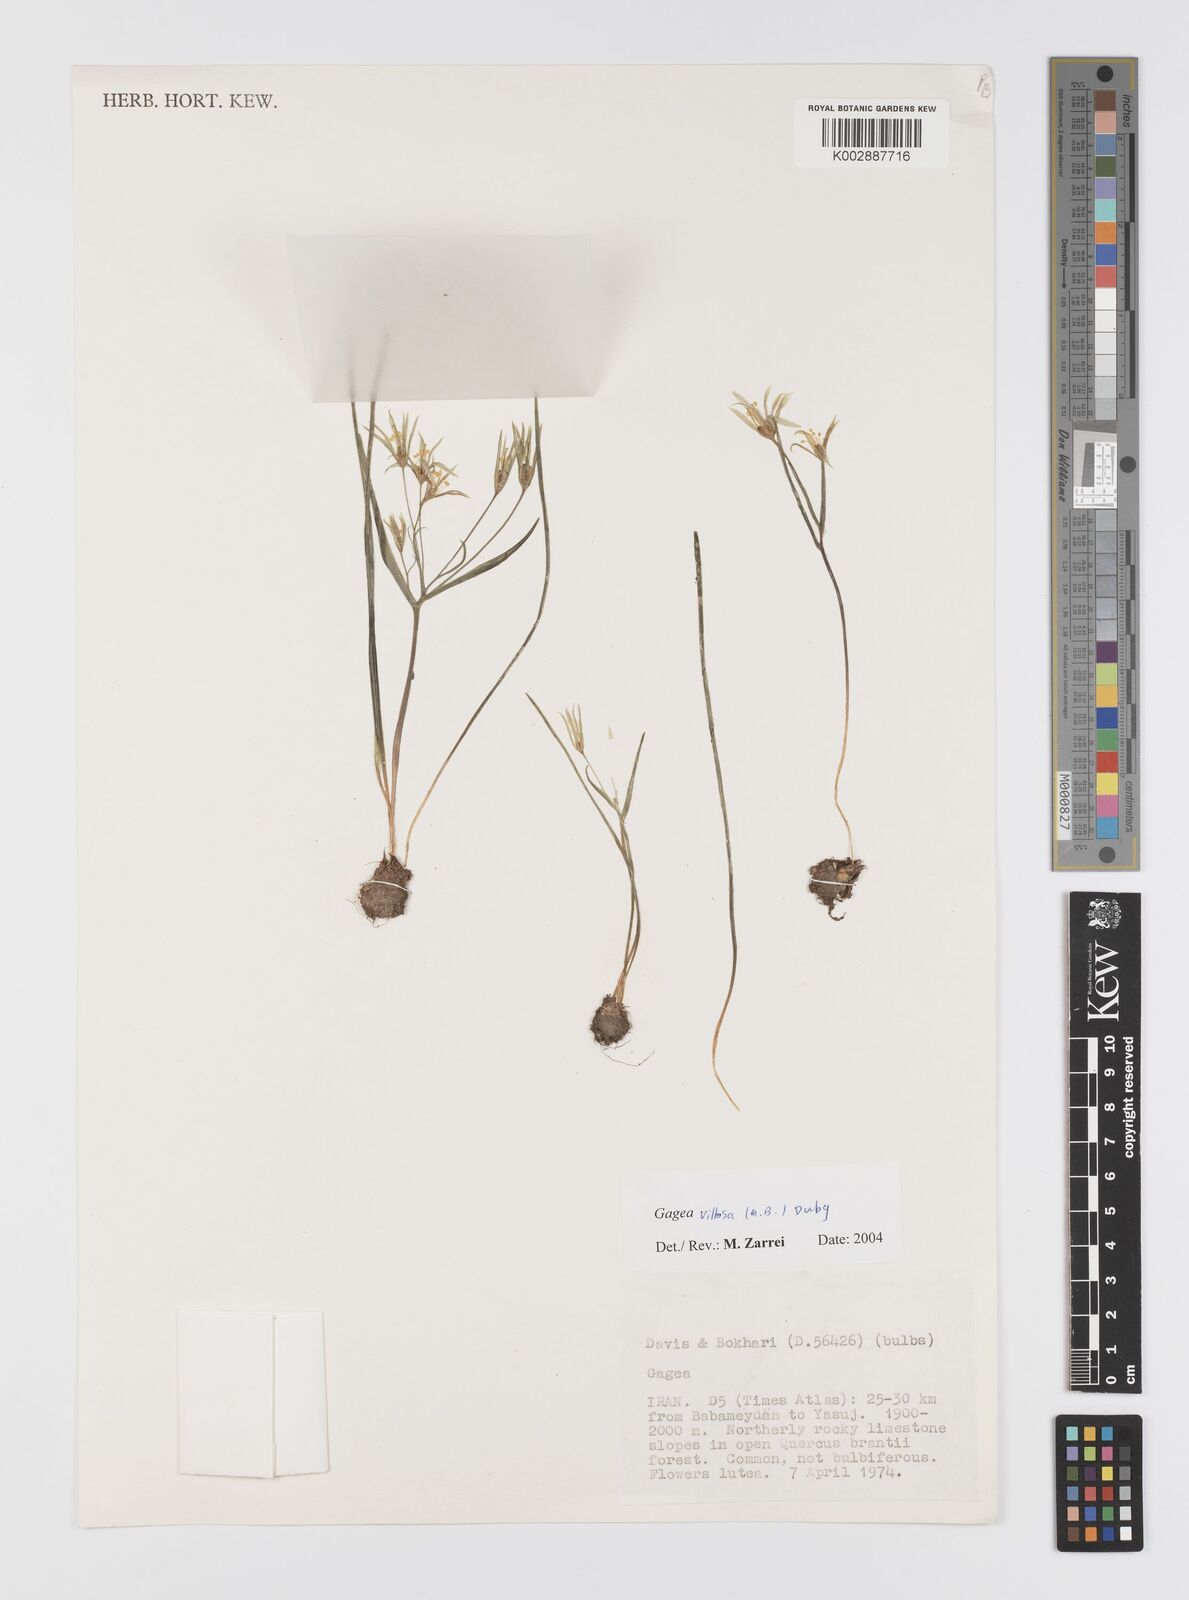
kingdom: Plantae
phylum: Tracheophyta
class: Liliopsida
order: Liliales
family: Liliaceae
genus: Gagea
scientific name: Gagea villosa
